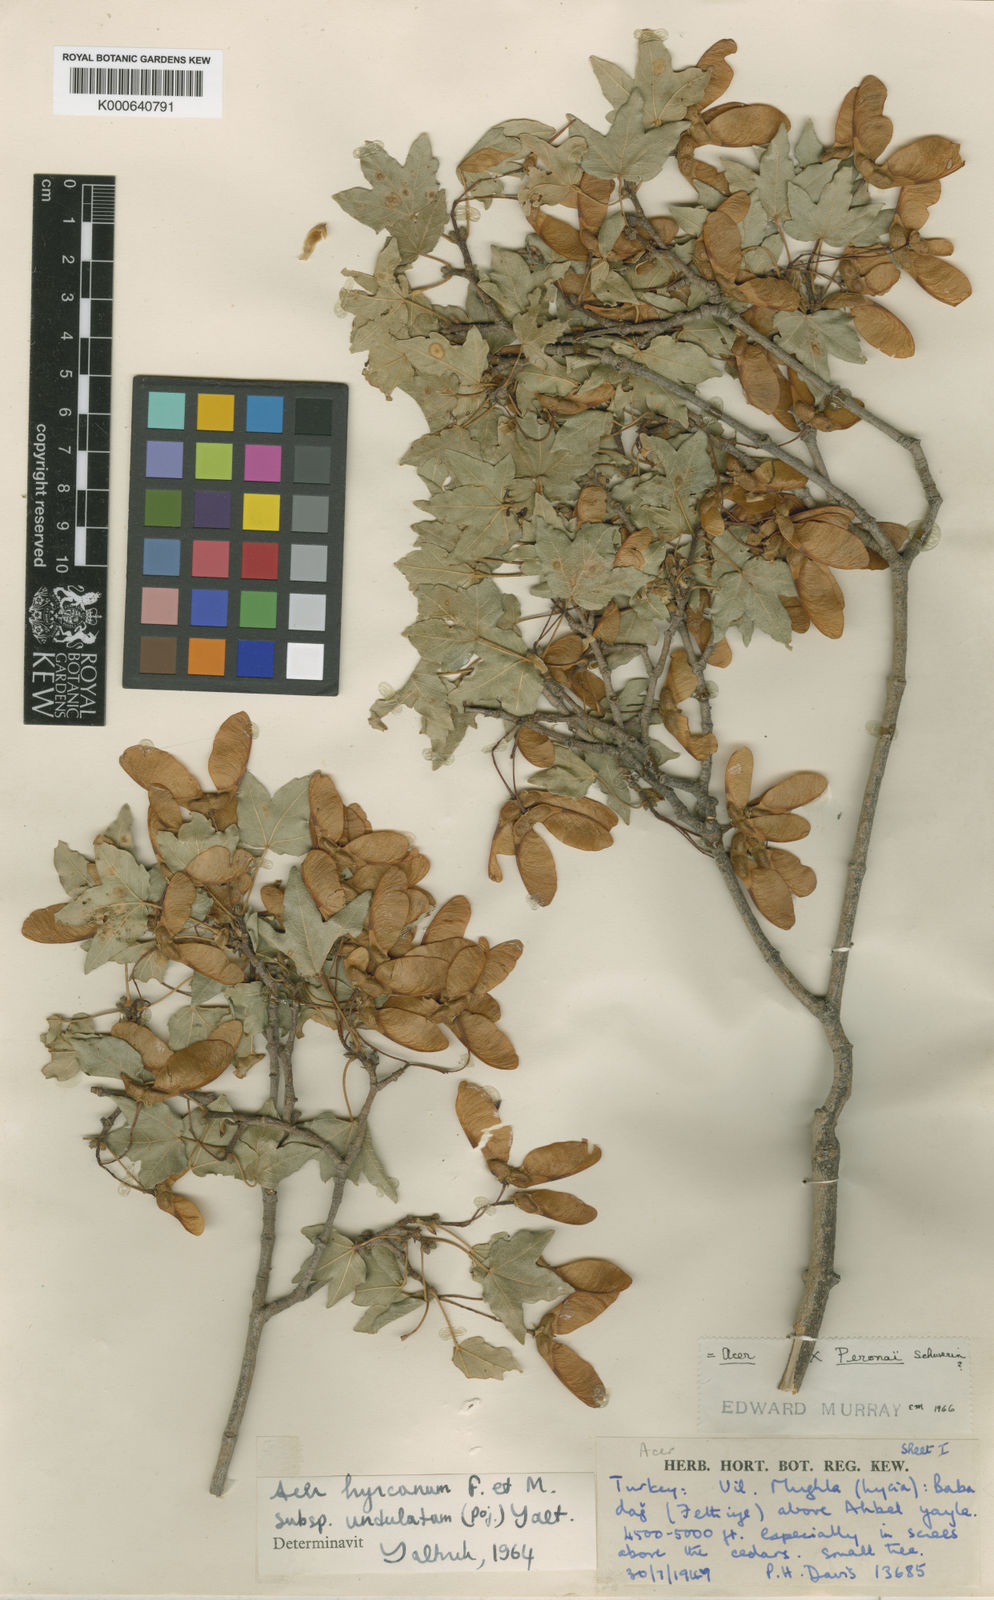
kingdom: Plantae
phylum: Tracheophyta
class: Magnoliopsida
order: Sapindales
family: Sapindaceae
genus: Acer
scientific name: Acer hyrcanum
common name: Balkan maple
